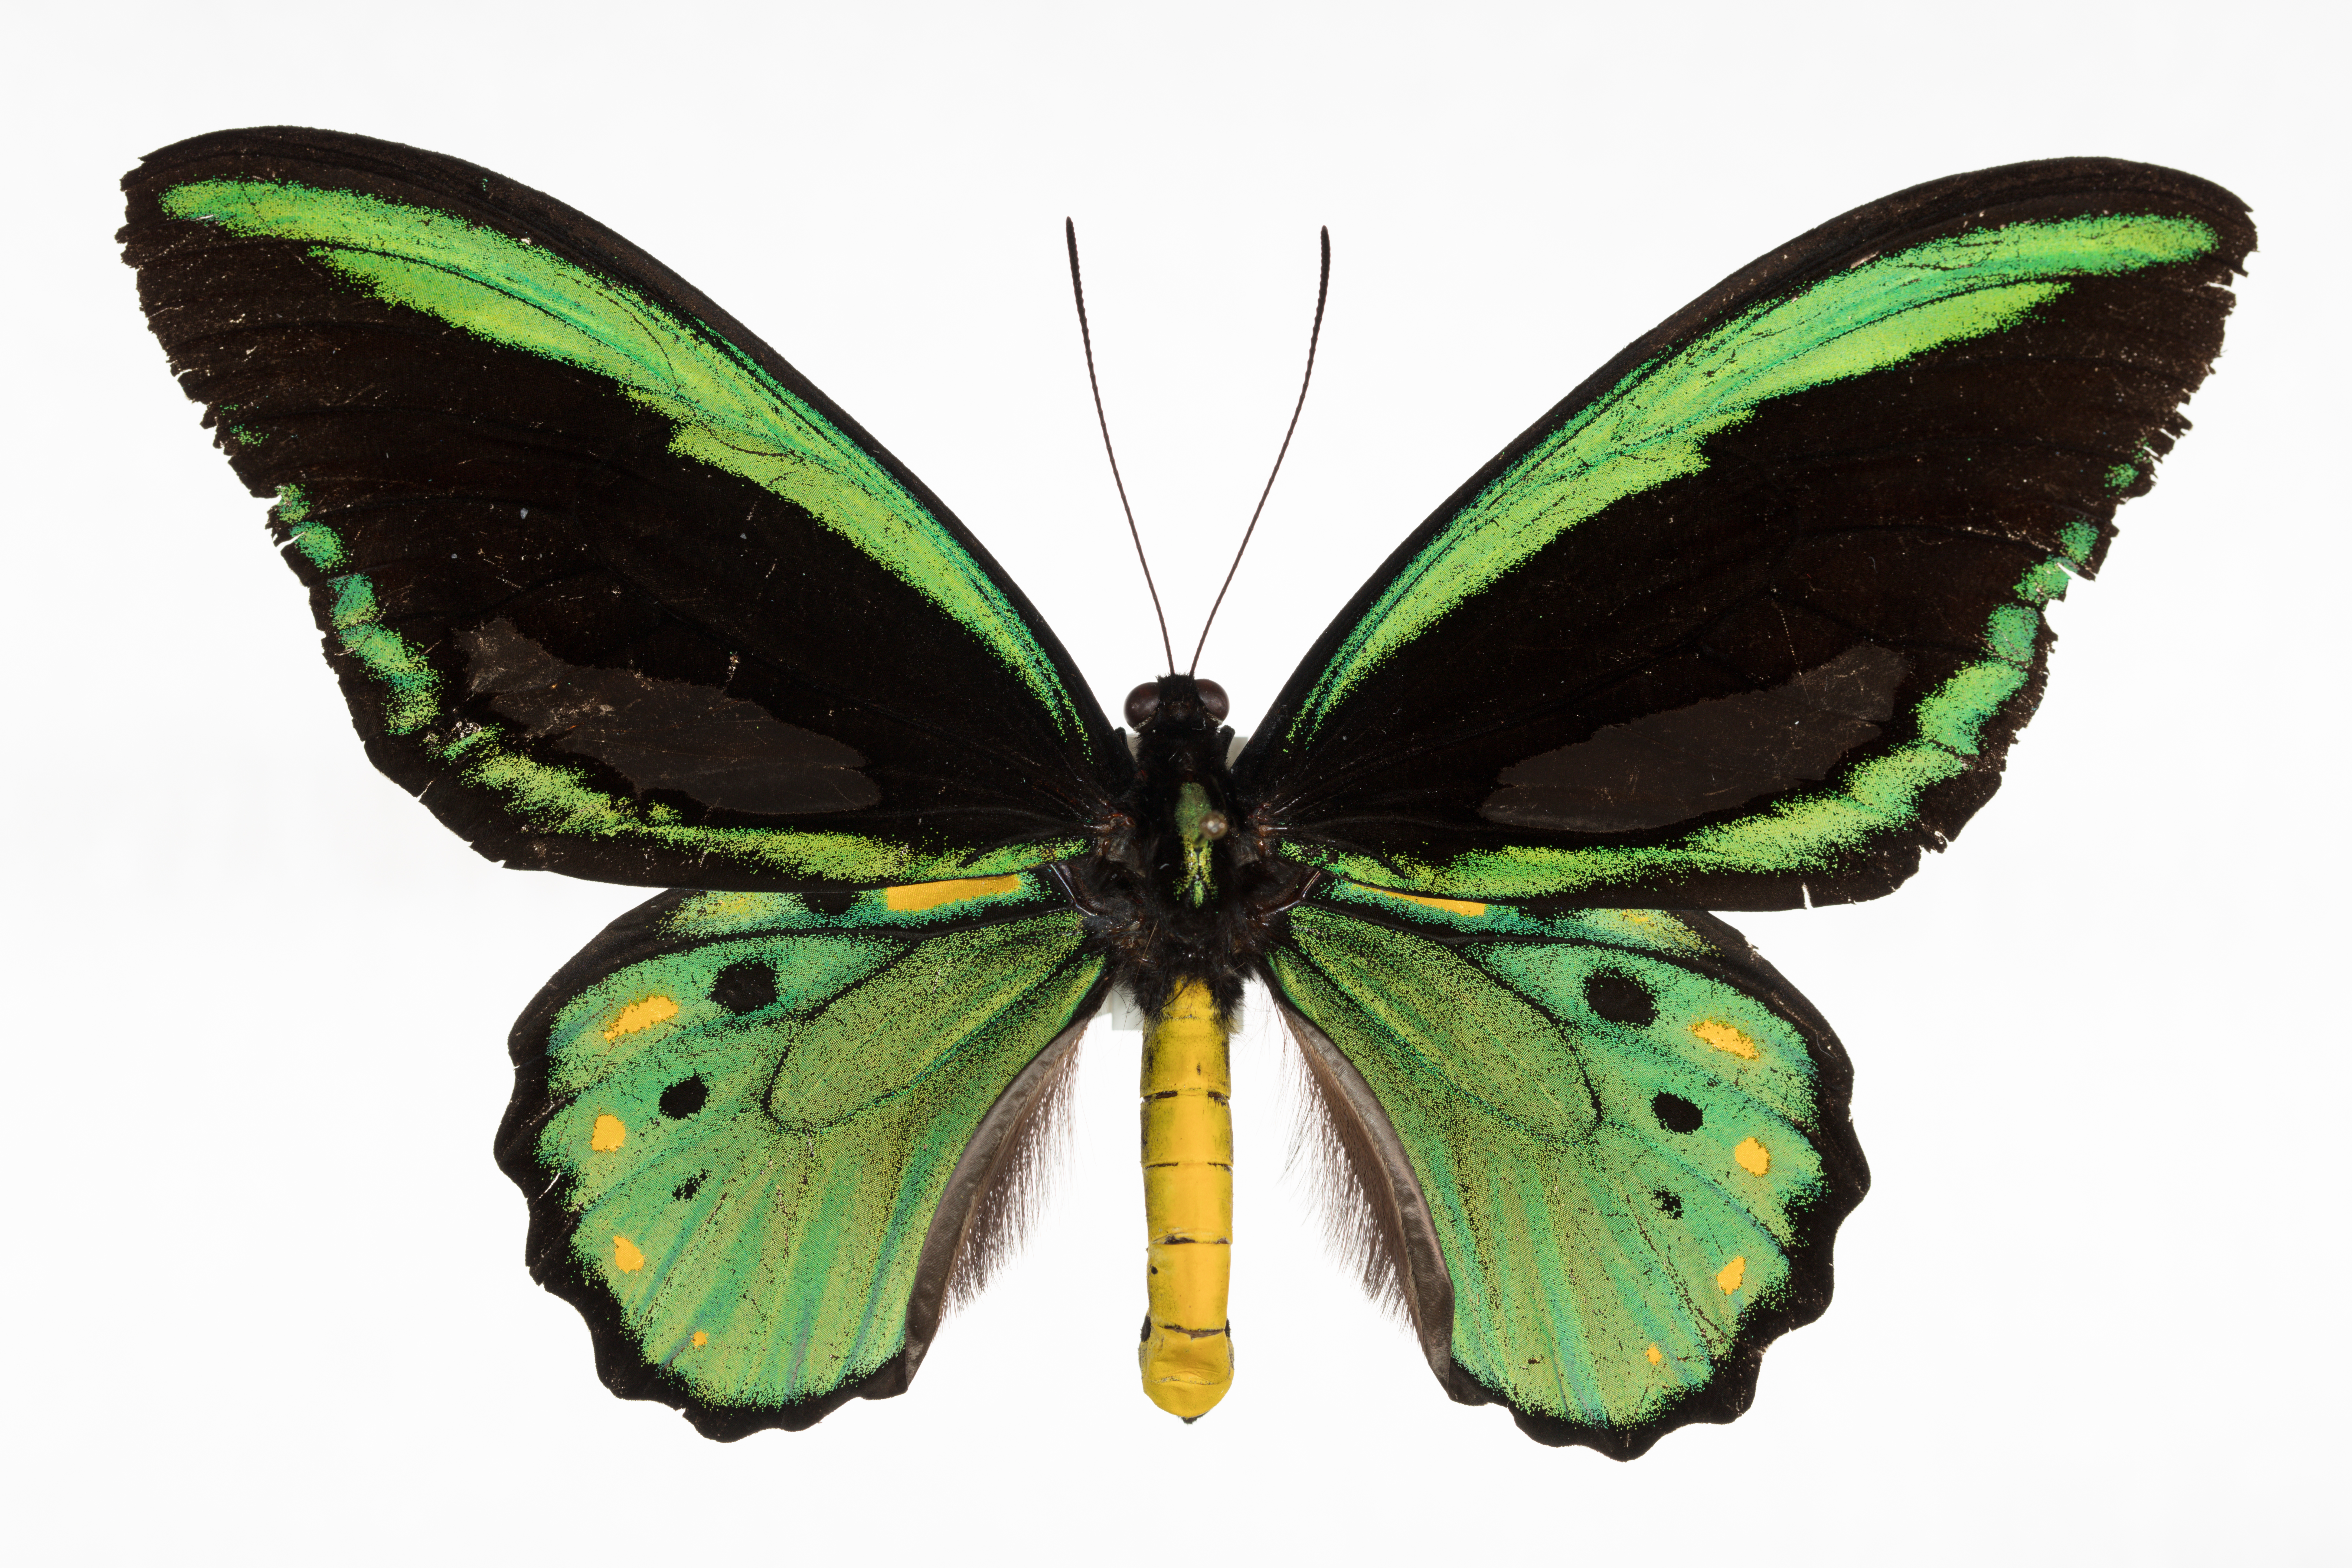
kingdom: Animalia
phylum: Arthropoda
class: Insecta
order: Lepidoptera
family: Papilionidae
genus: Ornithoptera
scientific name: Ornithoptera euphorion
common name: Cairns birdwing
